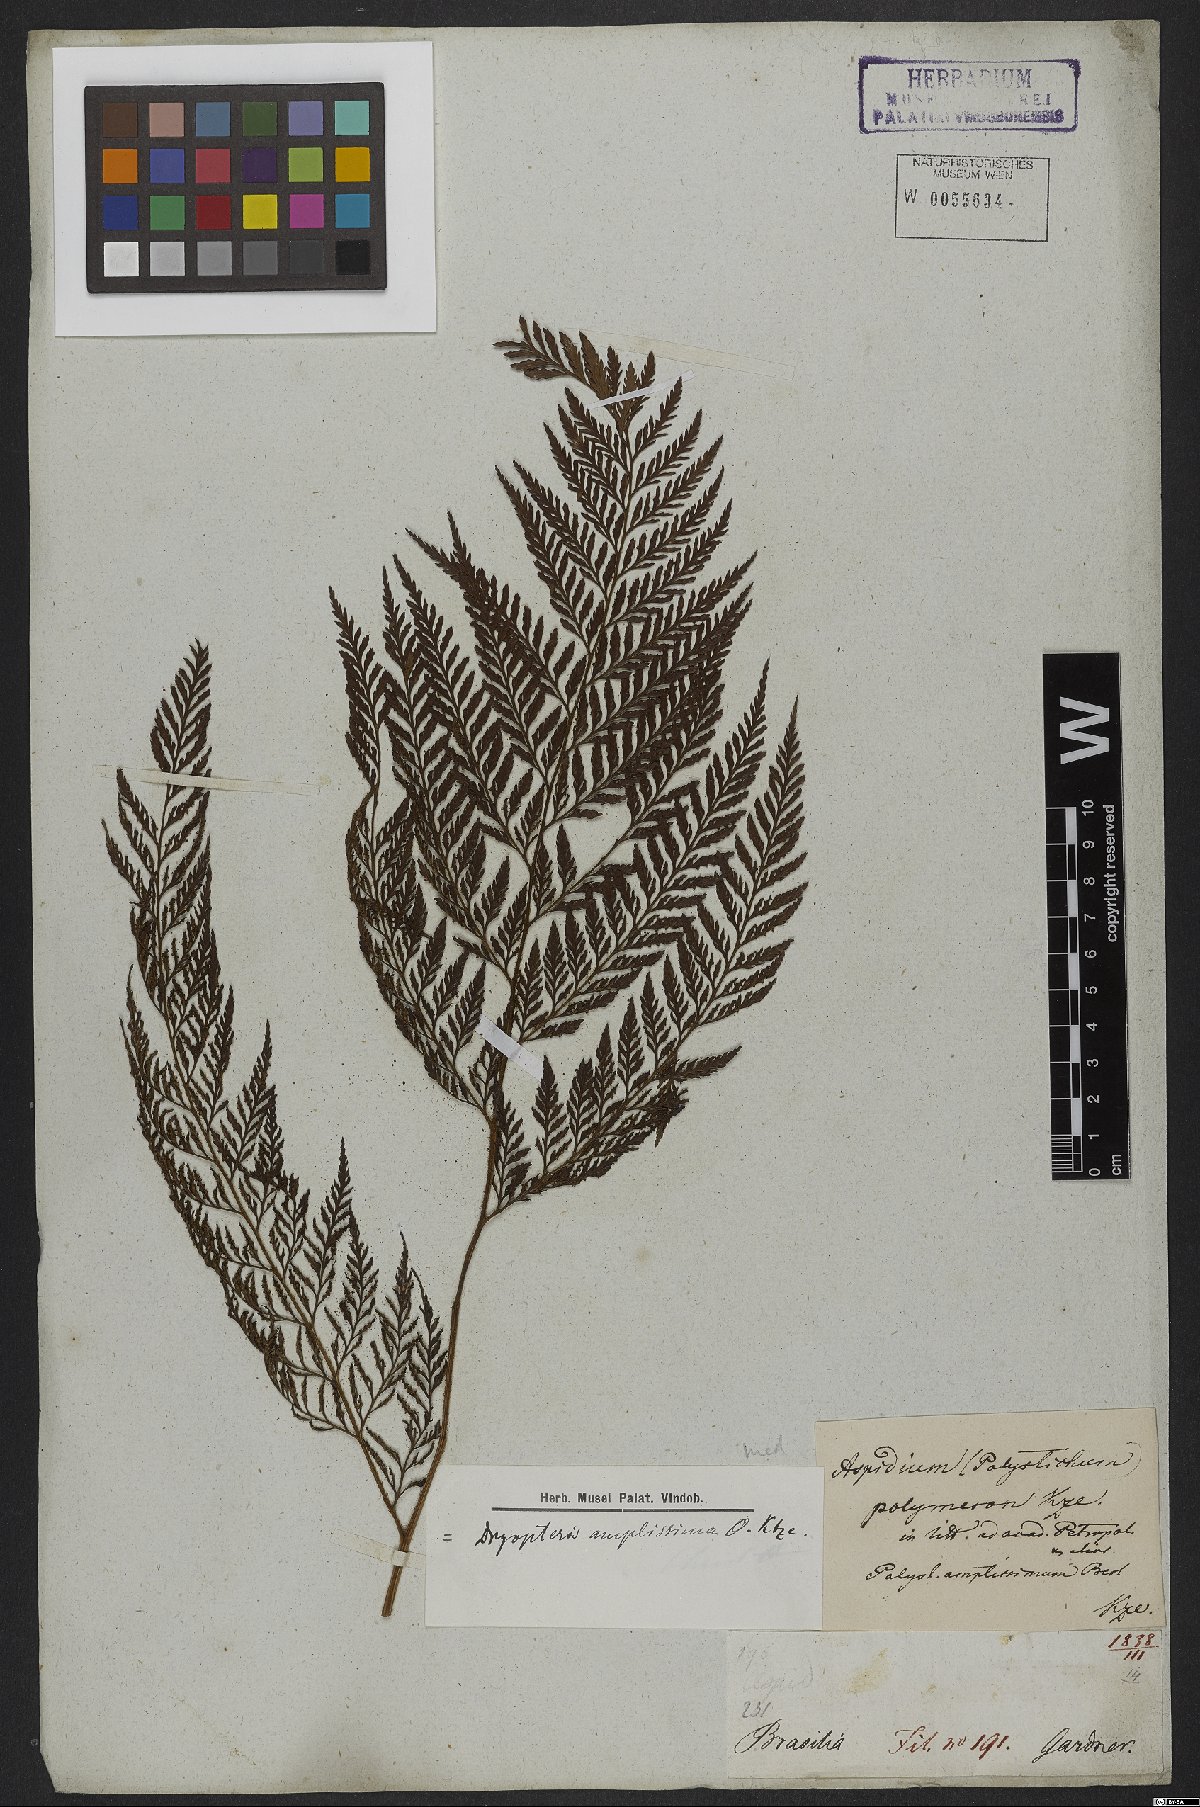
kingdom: Plantae
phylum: Tracheophyta
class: Polypodiopsida
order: Polypodiales
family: Dryopteridaceae
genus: Lastreopsis
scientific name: Lastreopsis amplissima
